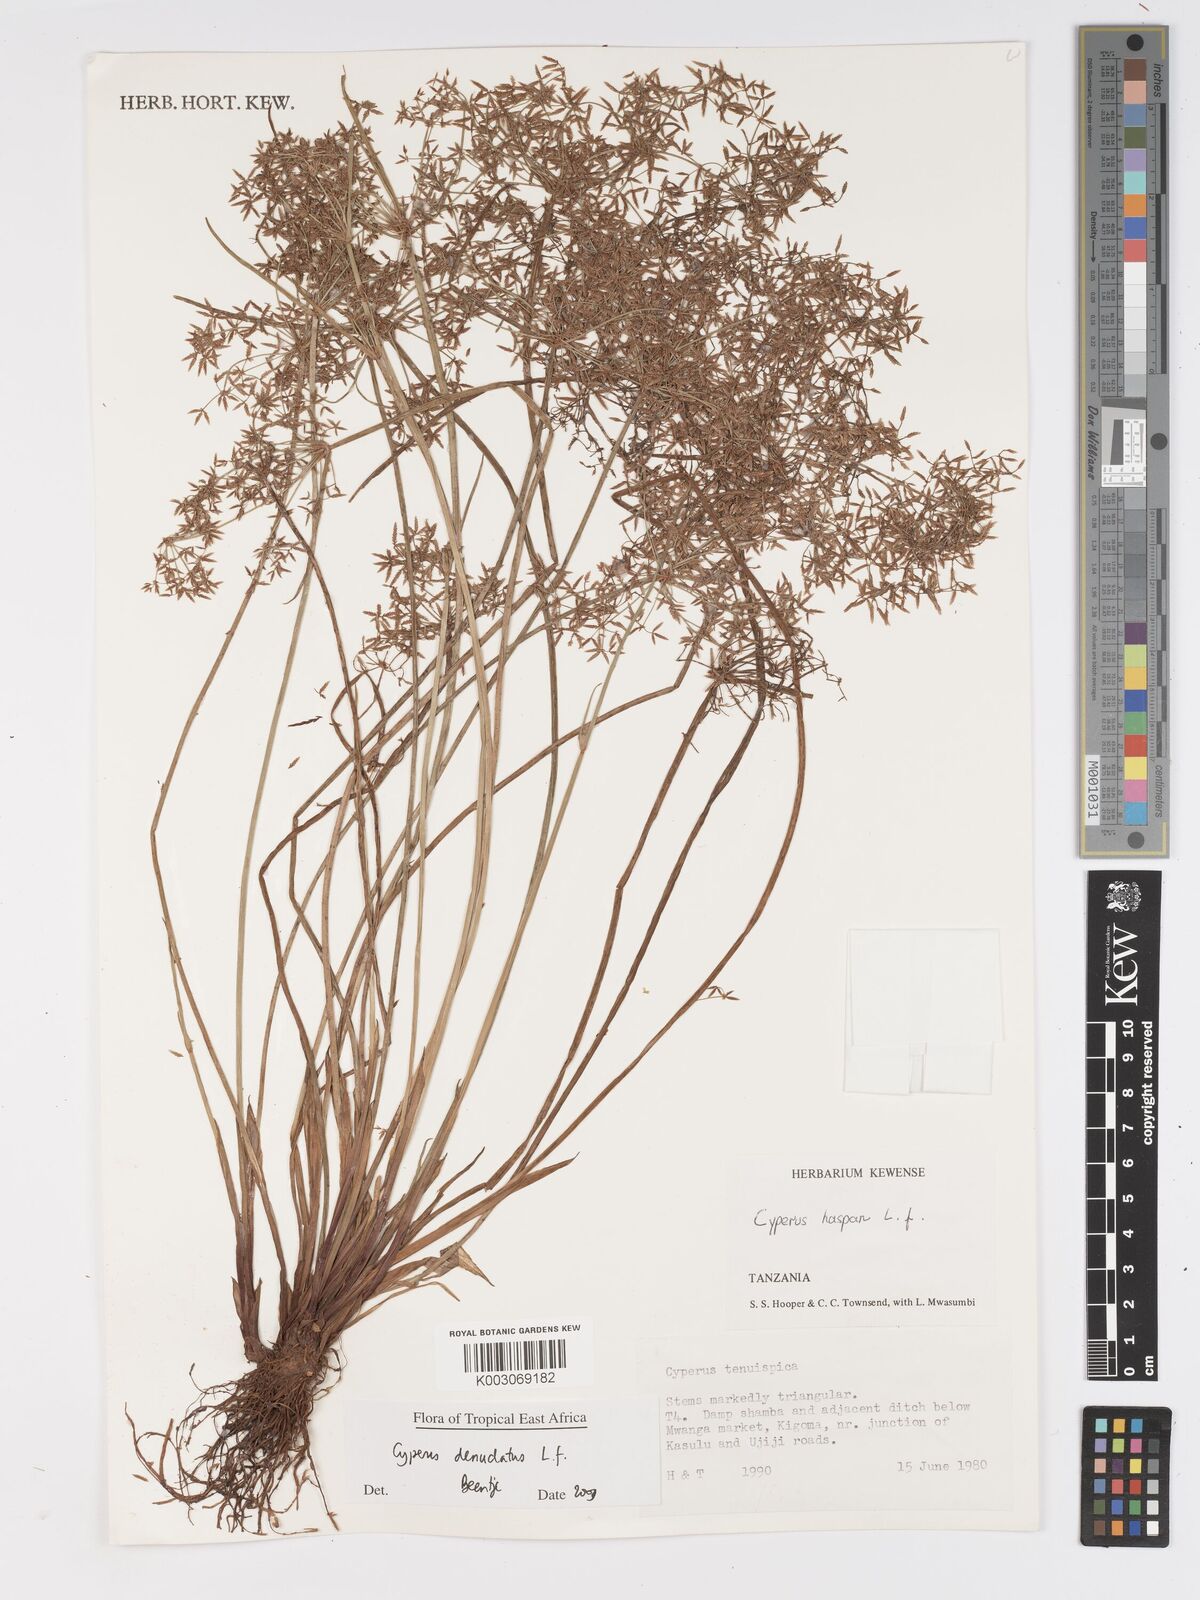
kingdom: Plantae
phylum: Tracheophyta
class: Liliopsida
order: Poales
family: Cyperaceae
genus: Cyperus
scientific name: Cyperus denudatus
